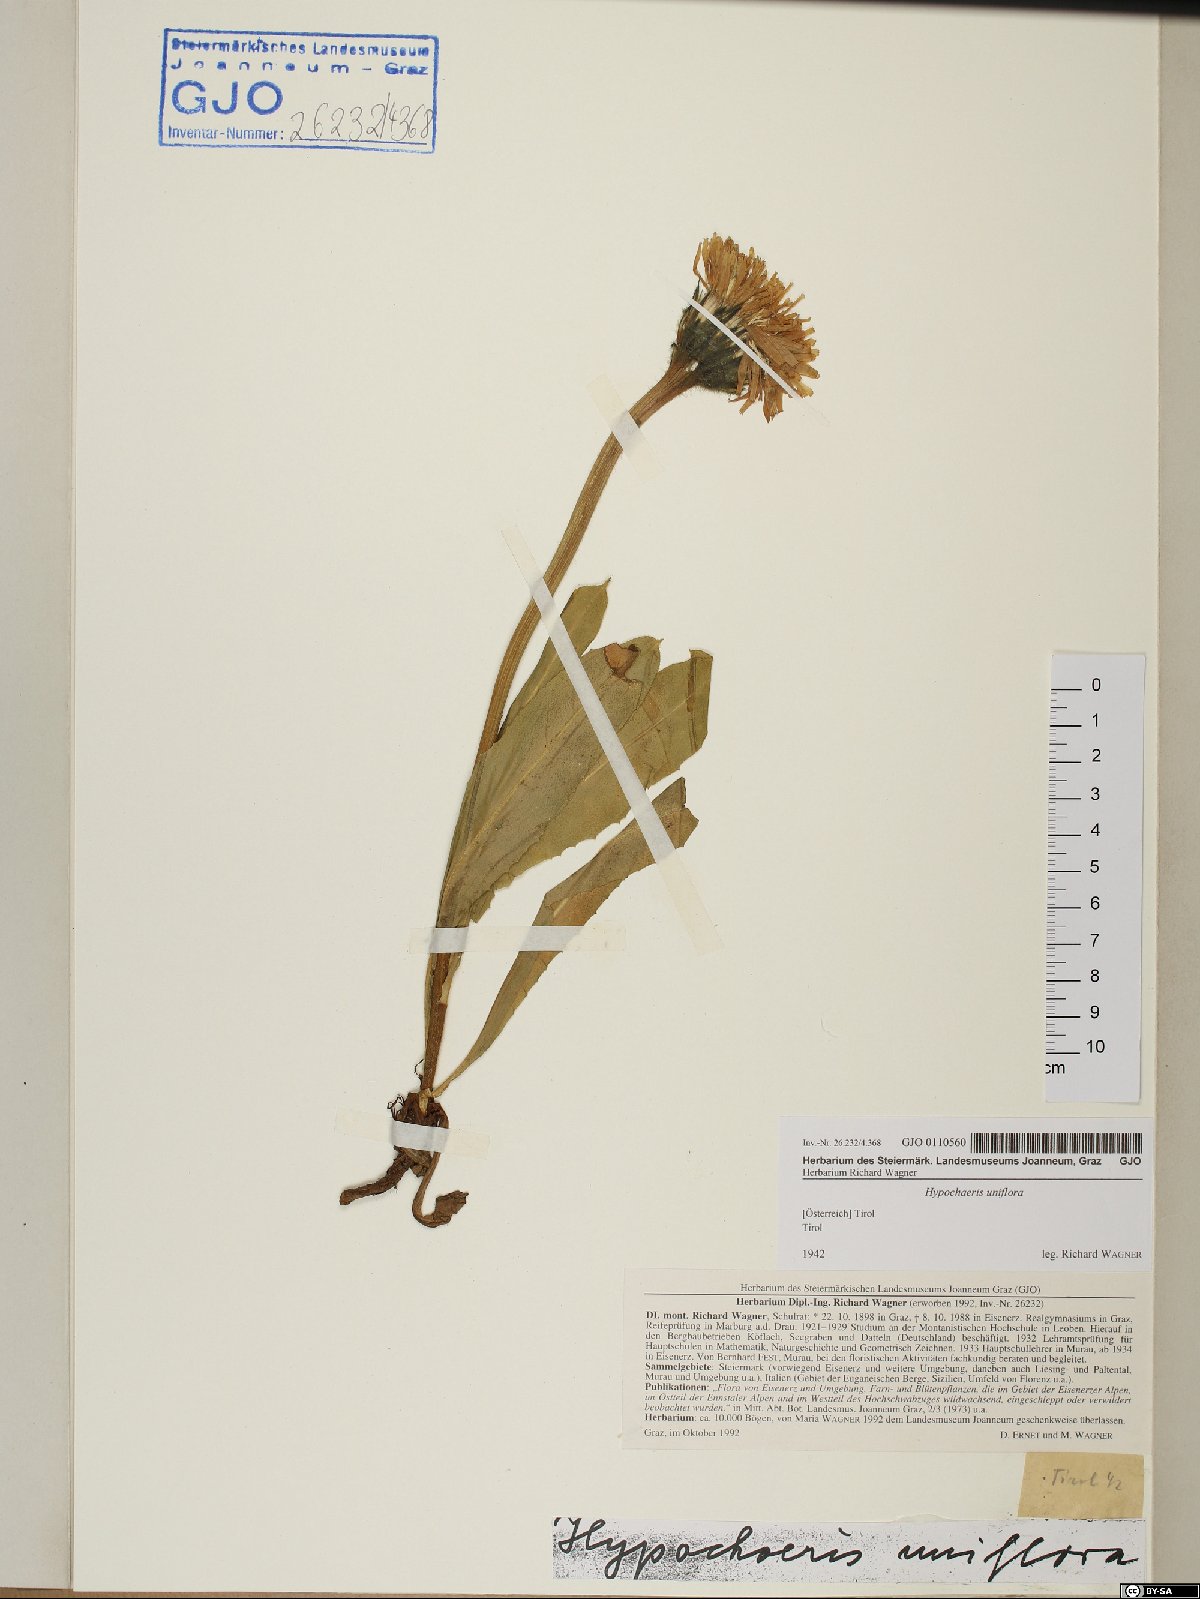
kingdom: Plantae
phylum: Tracheophyta
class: Magnoliopsida
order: Asterales
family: Asteraceae
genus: Trommsdorffia
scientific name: Trommsdorffia uniflora
